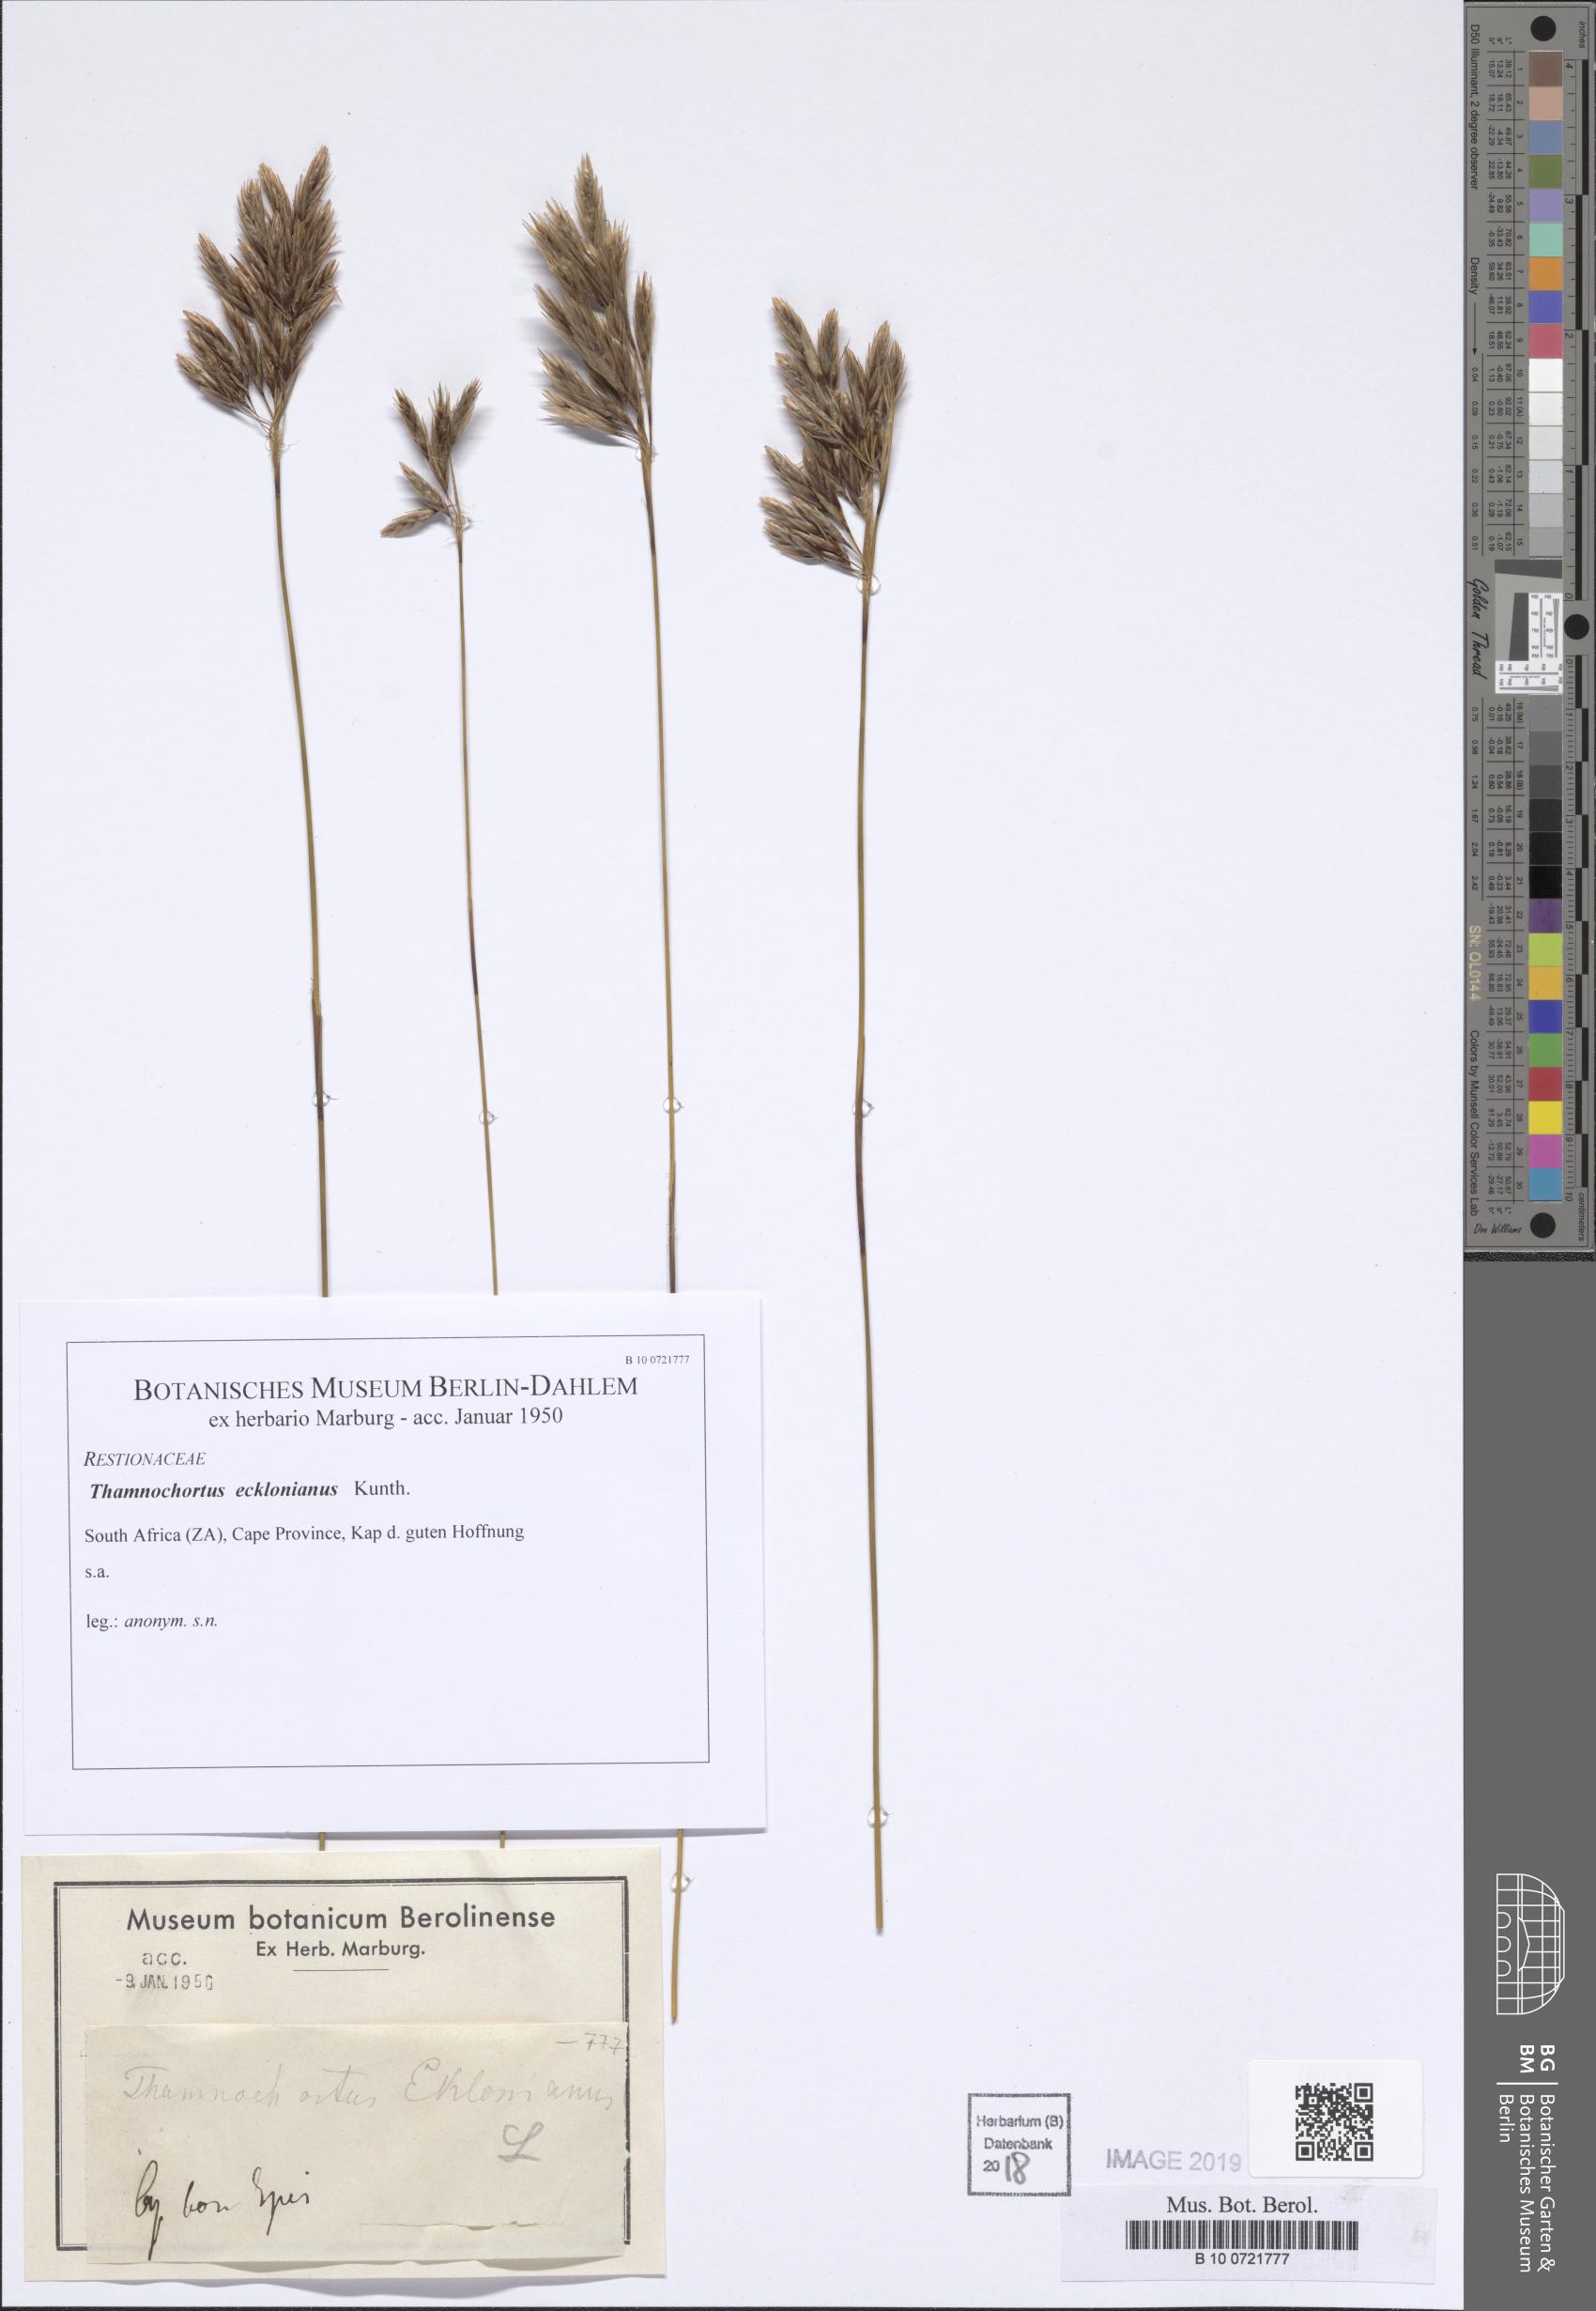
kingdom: Plantae
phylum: Tracheophyta
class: Liliopsida
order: Poales
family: Restionaceae
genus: Thamnochortus
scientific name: Thamnochortus lucens
